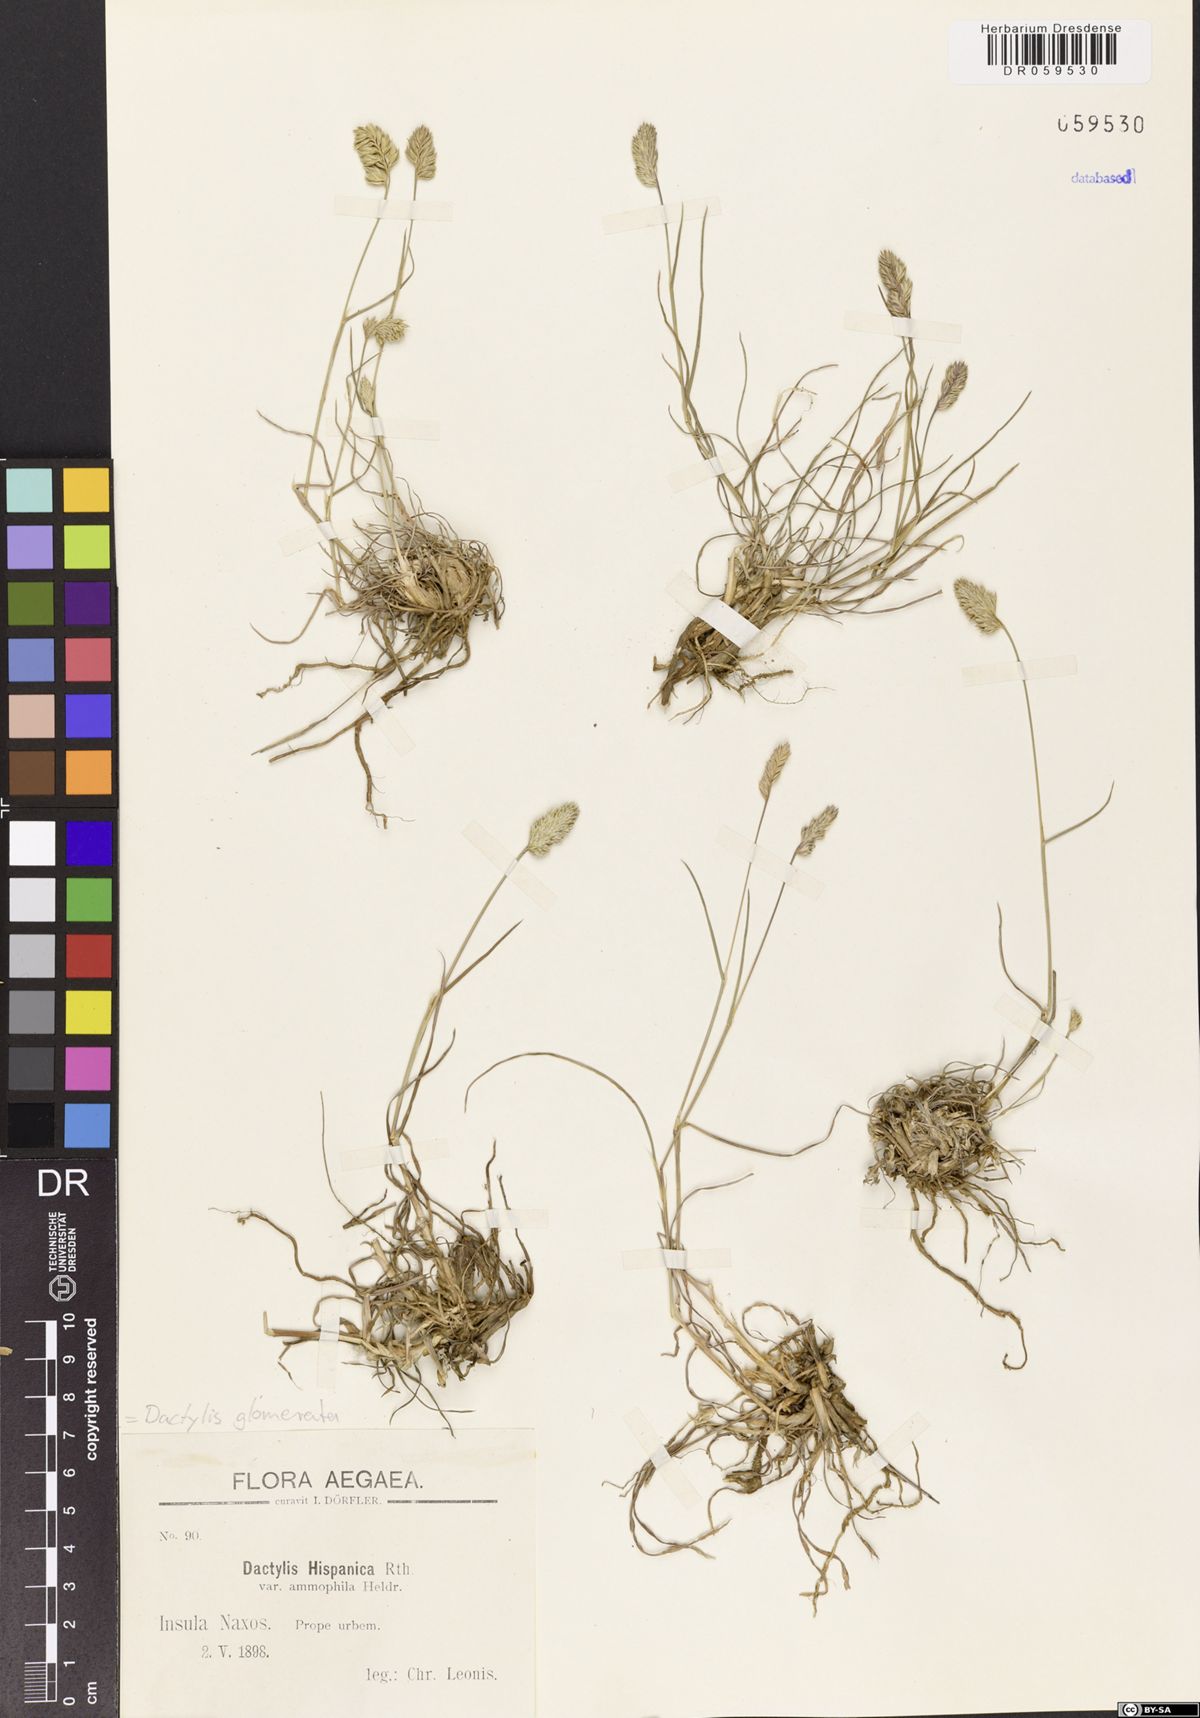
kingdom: Plantae
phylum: Tracheophyta
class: Liliopsida
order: Poales
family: Poaceae
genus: Dactylis
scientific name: Dactylis glomerata
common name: Orchardgrass
